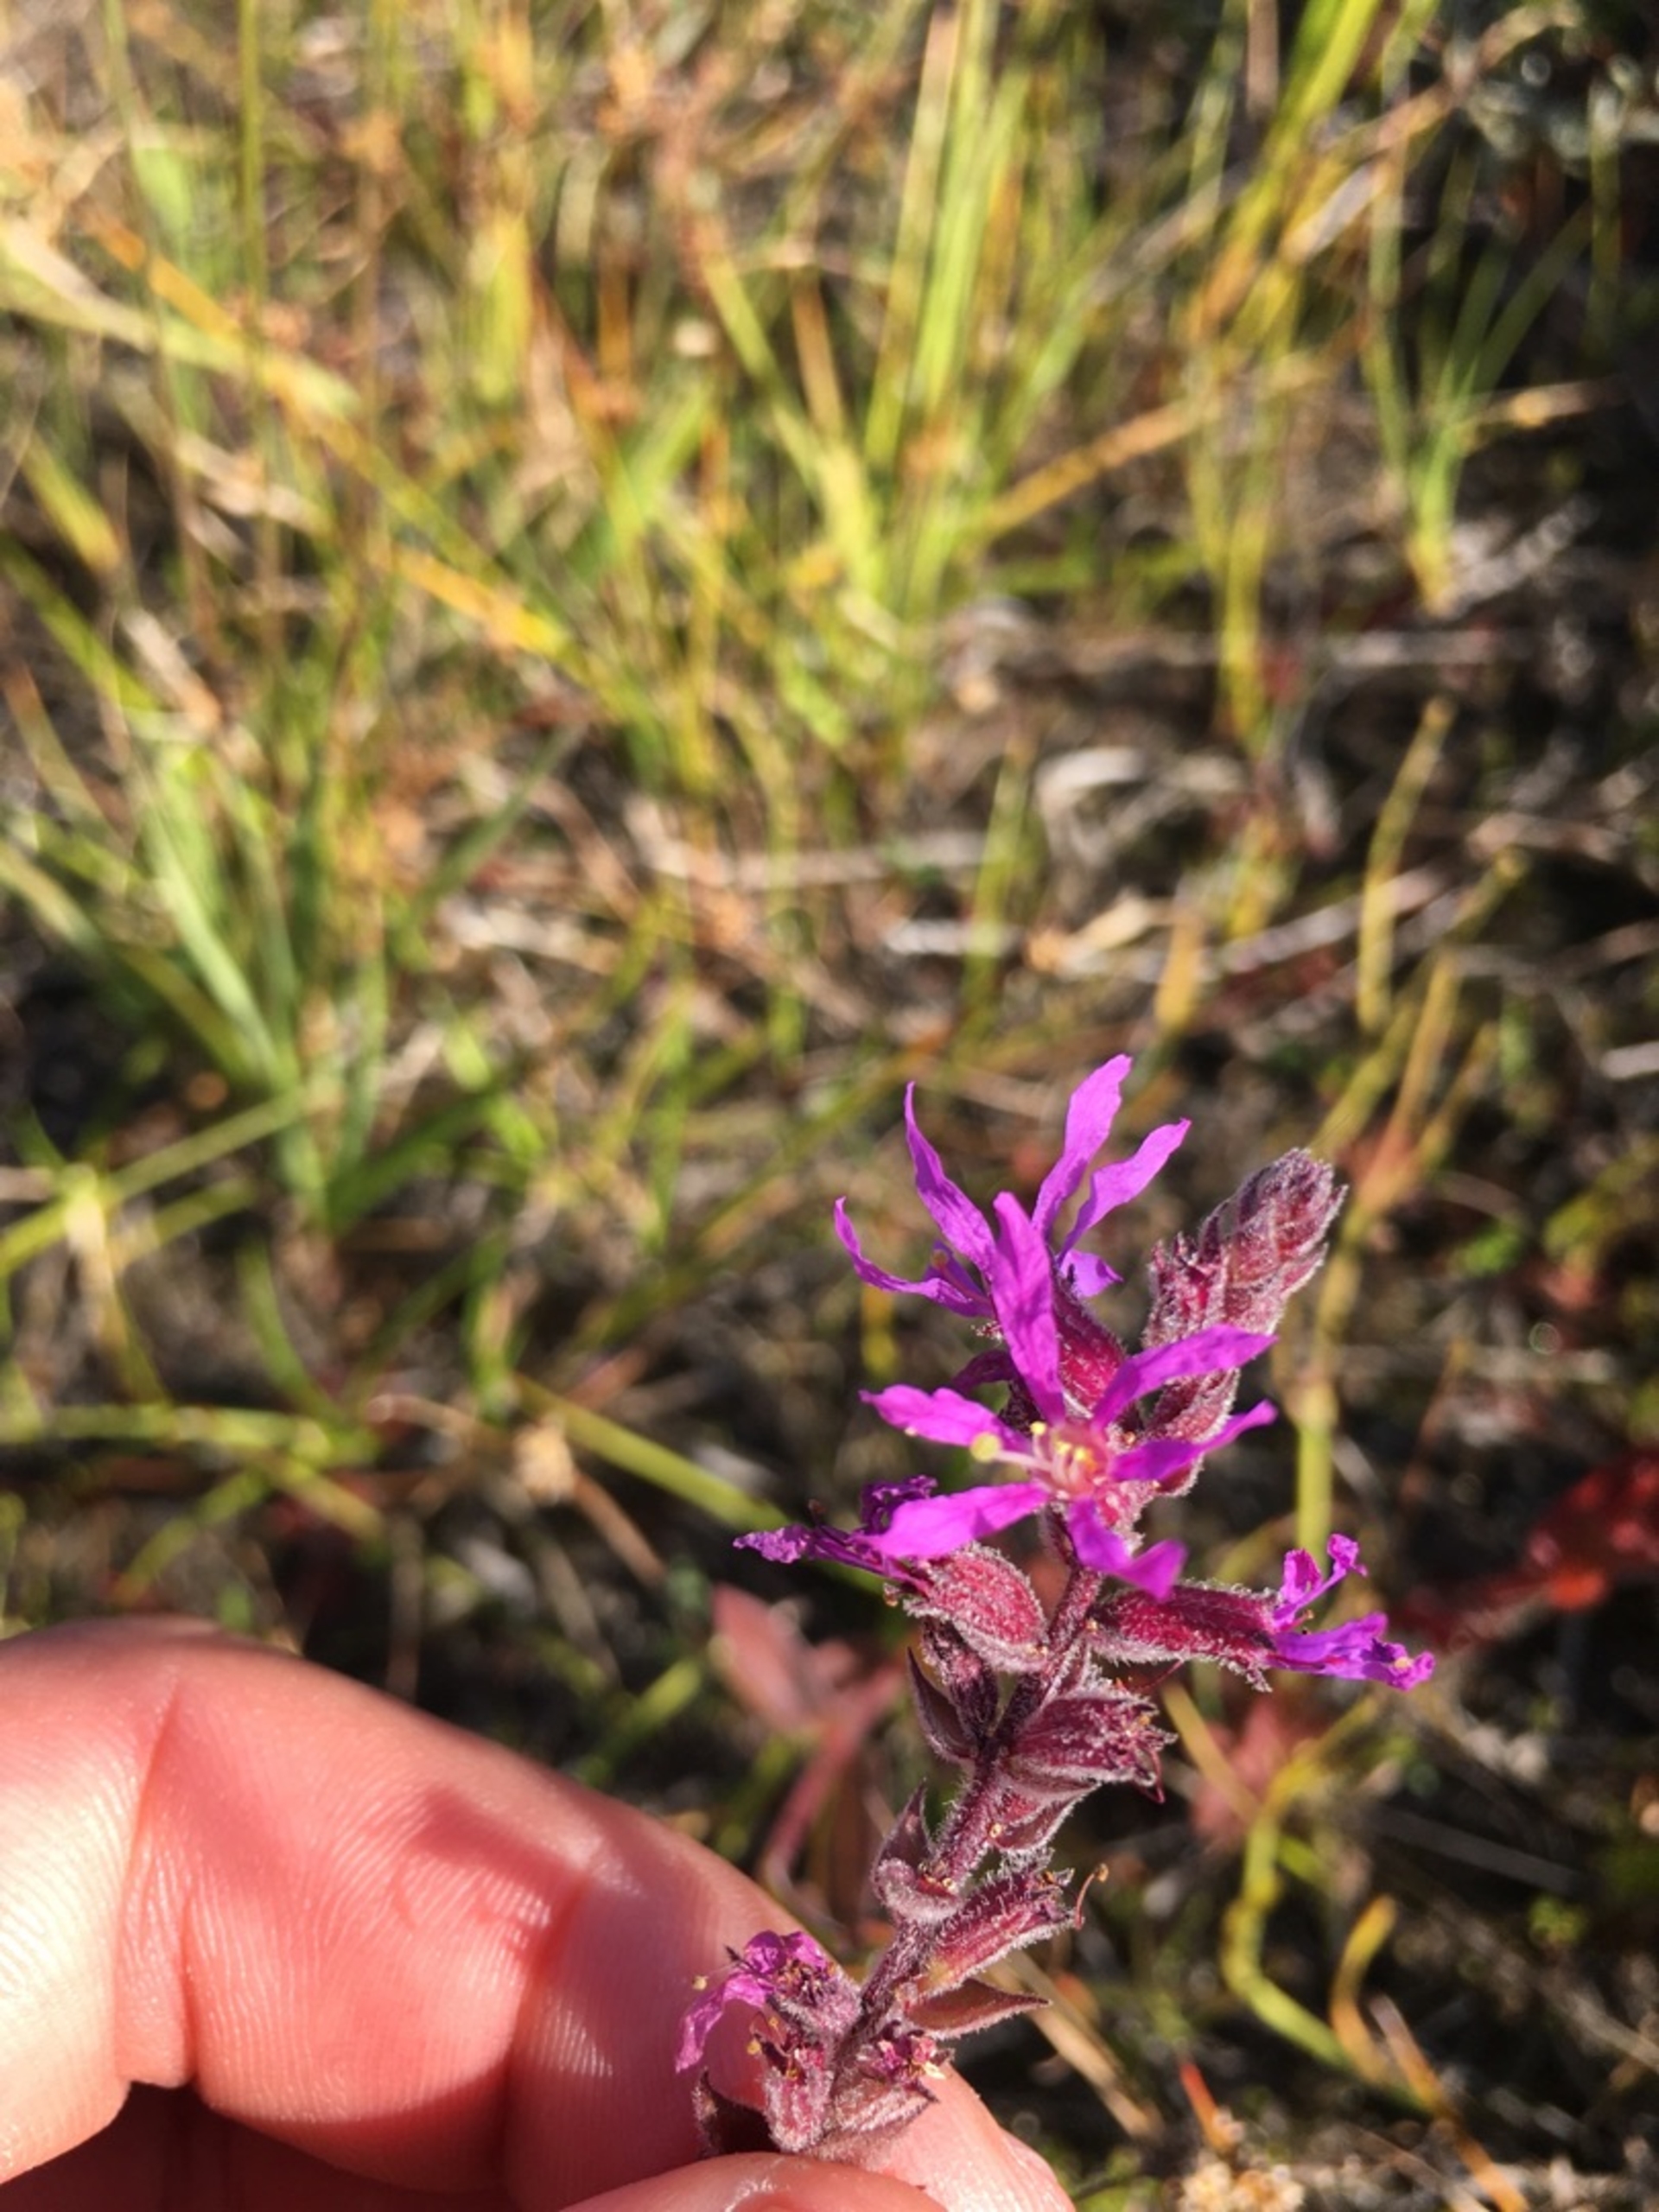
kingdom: Plantae
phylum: Tracheophyta
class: Magnoliopsida
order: Myrtales
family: Lythraceae
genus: Lythrum
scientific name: Lythrum salicaria
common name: Kattehale
